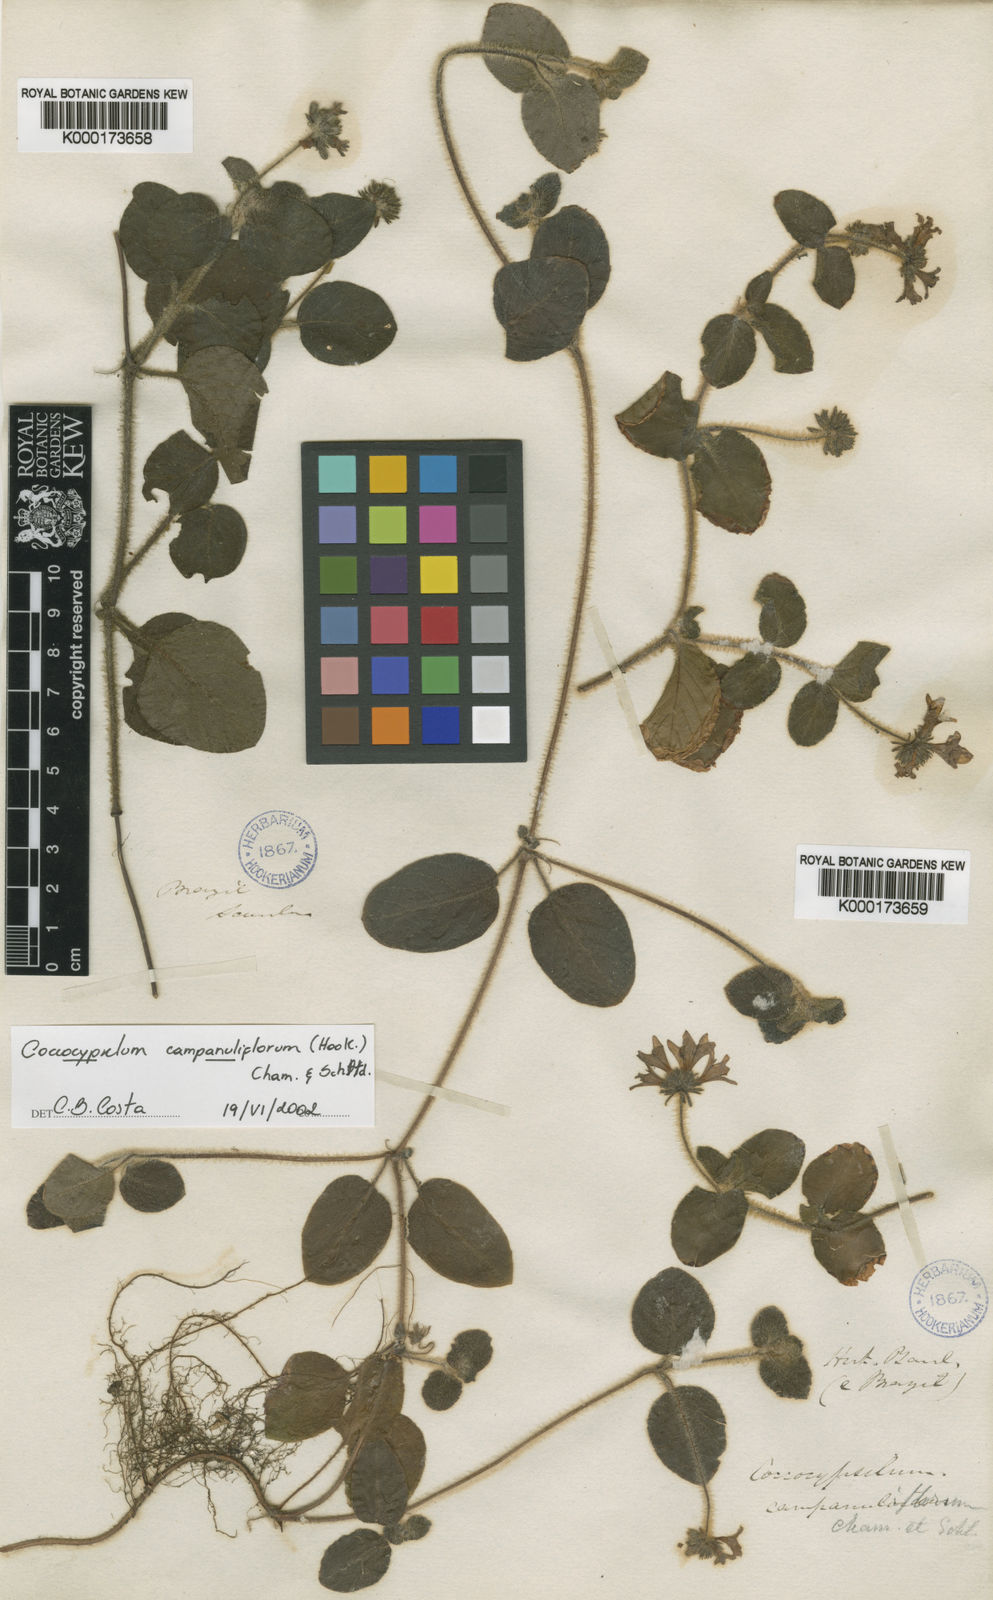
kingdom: Plantae
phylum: Tracheophyta
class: Magnoliopsida
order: Gentianales
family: Rubiaceae
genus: Coccocypselum
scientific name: Coccocypselum
